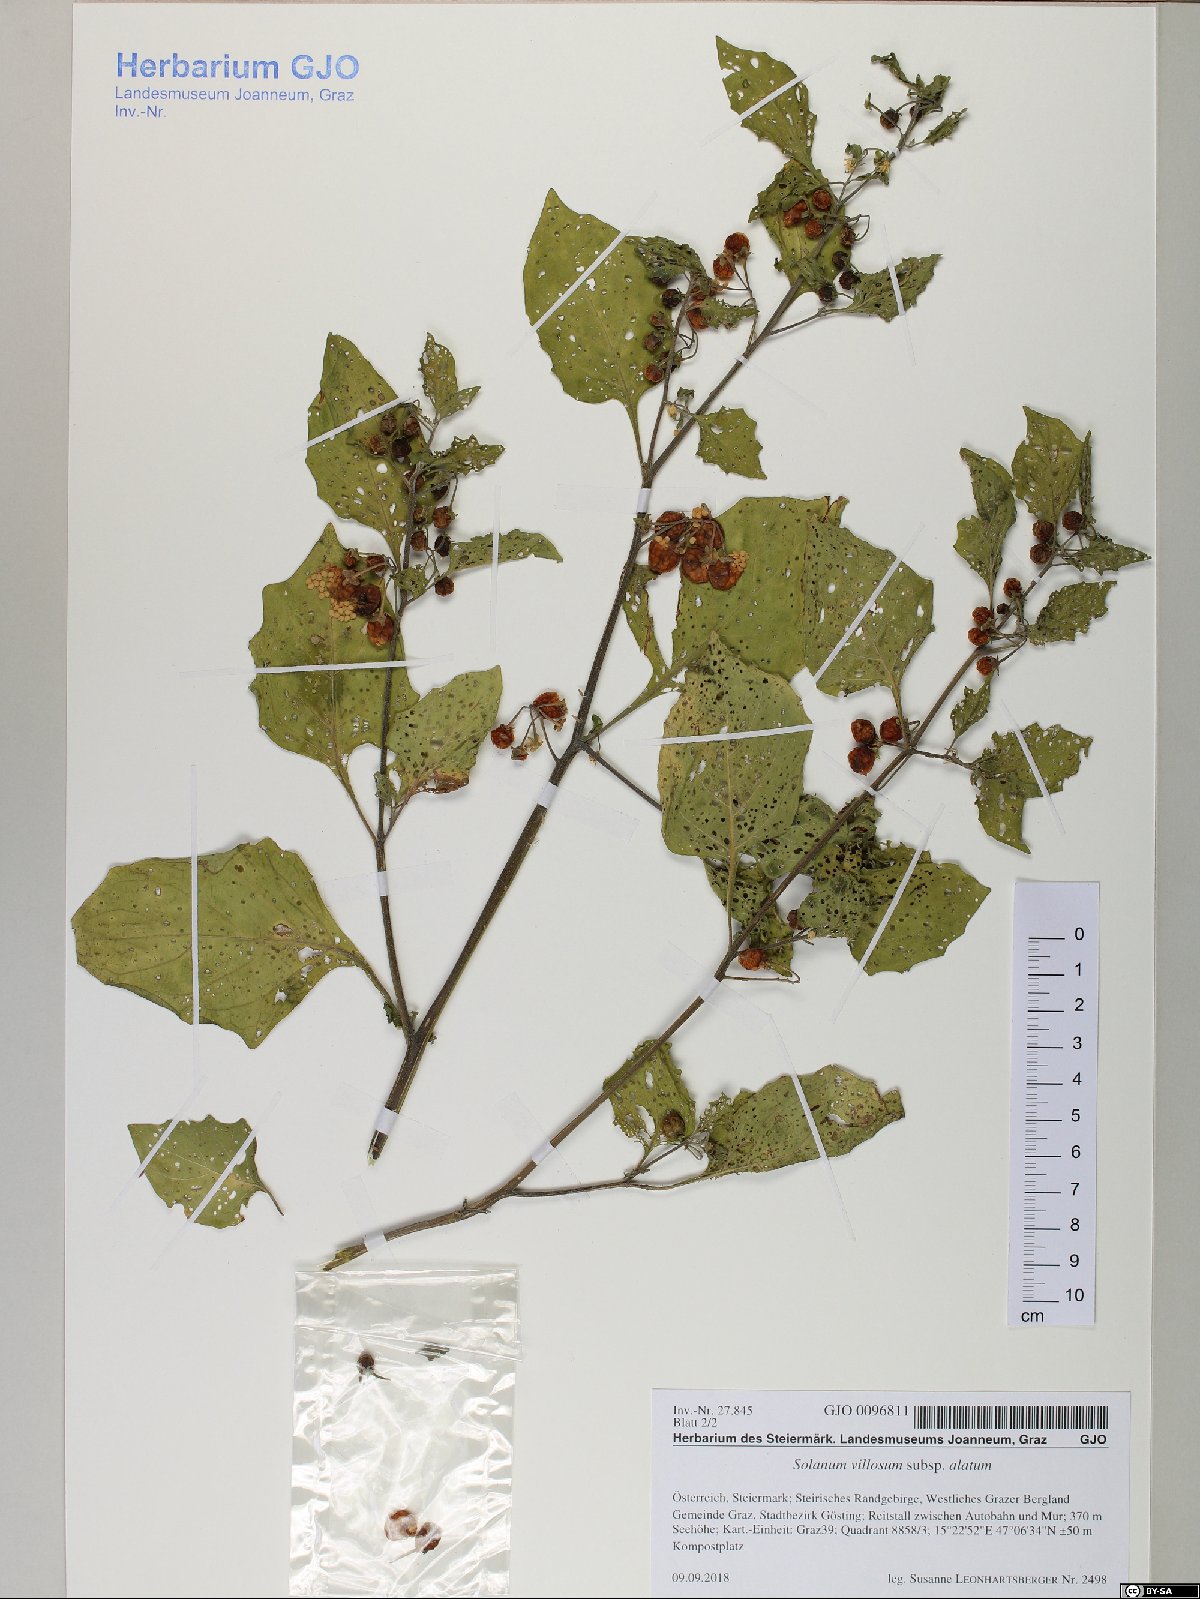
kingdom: Plantae
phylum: Tracheophyta
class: Magnoliopsida
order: Solanales
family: Solanaceae
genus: Solanum
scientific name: Solanum alatum
